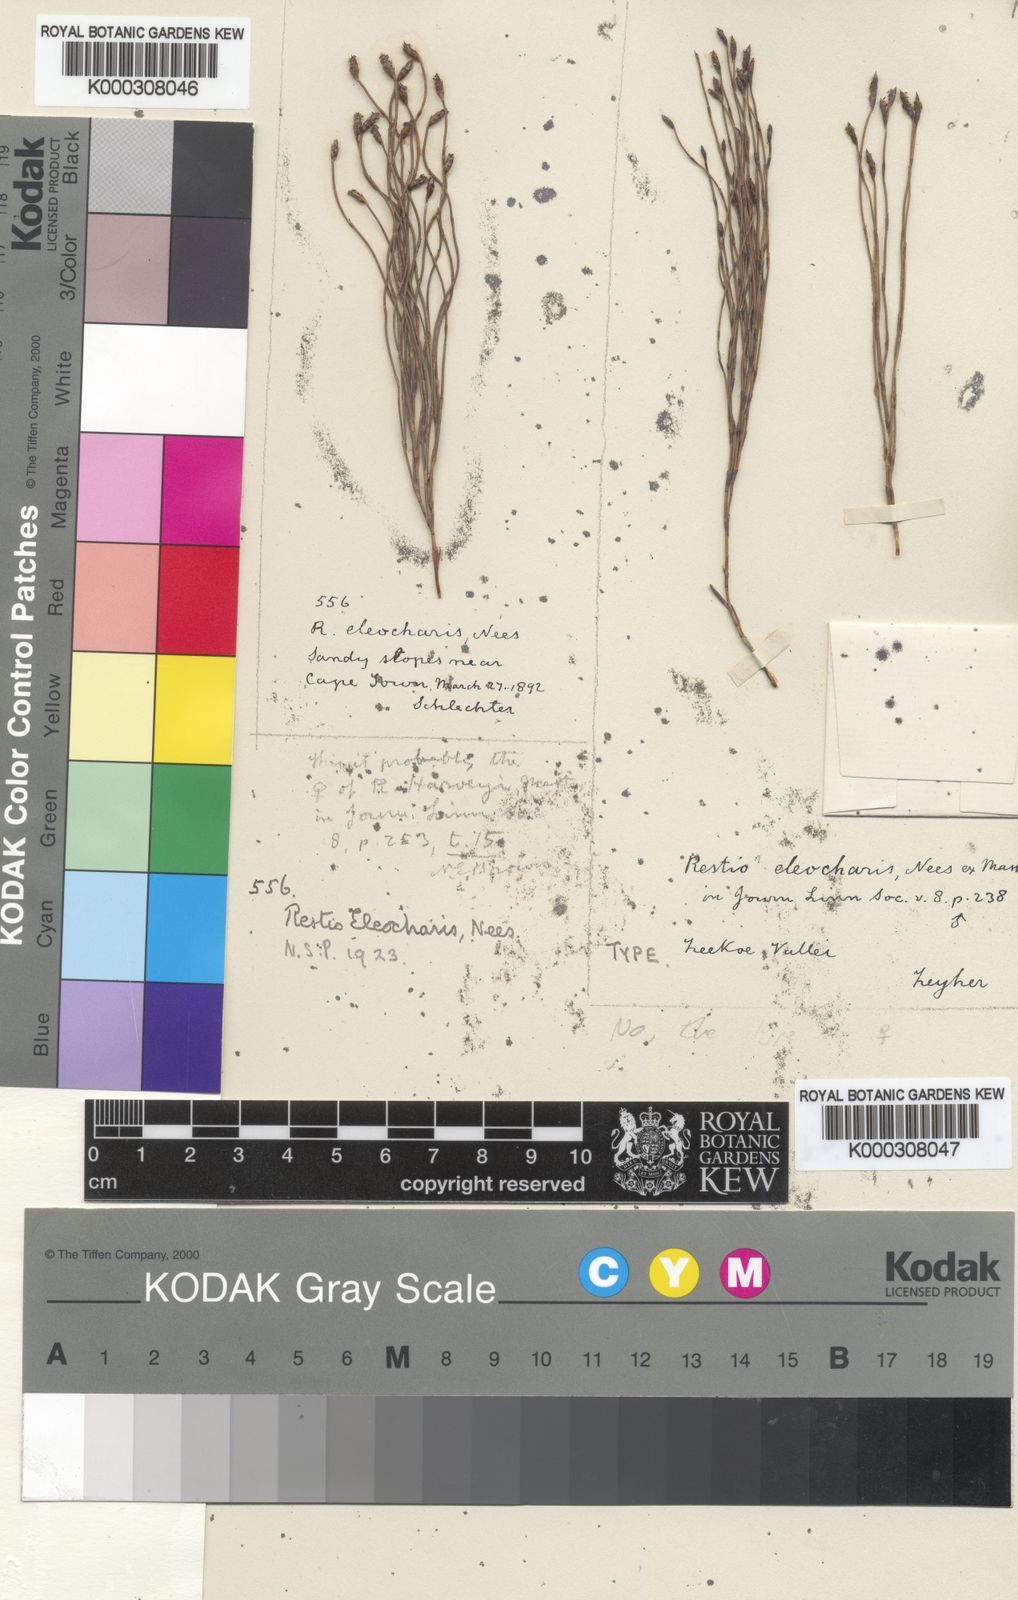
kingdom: Plantae
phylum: Tracheophyta
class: Liliopsida
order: Poales
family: Restionaceae
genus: Restio
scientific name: Restio eleocharis
